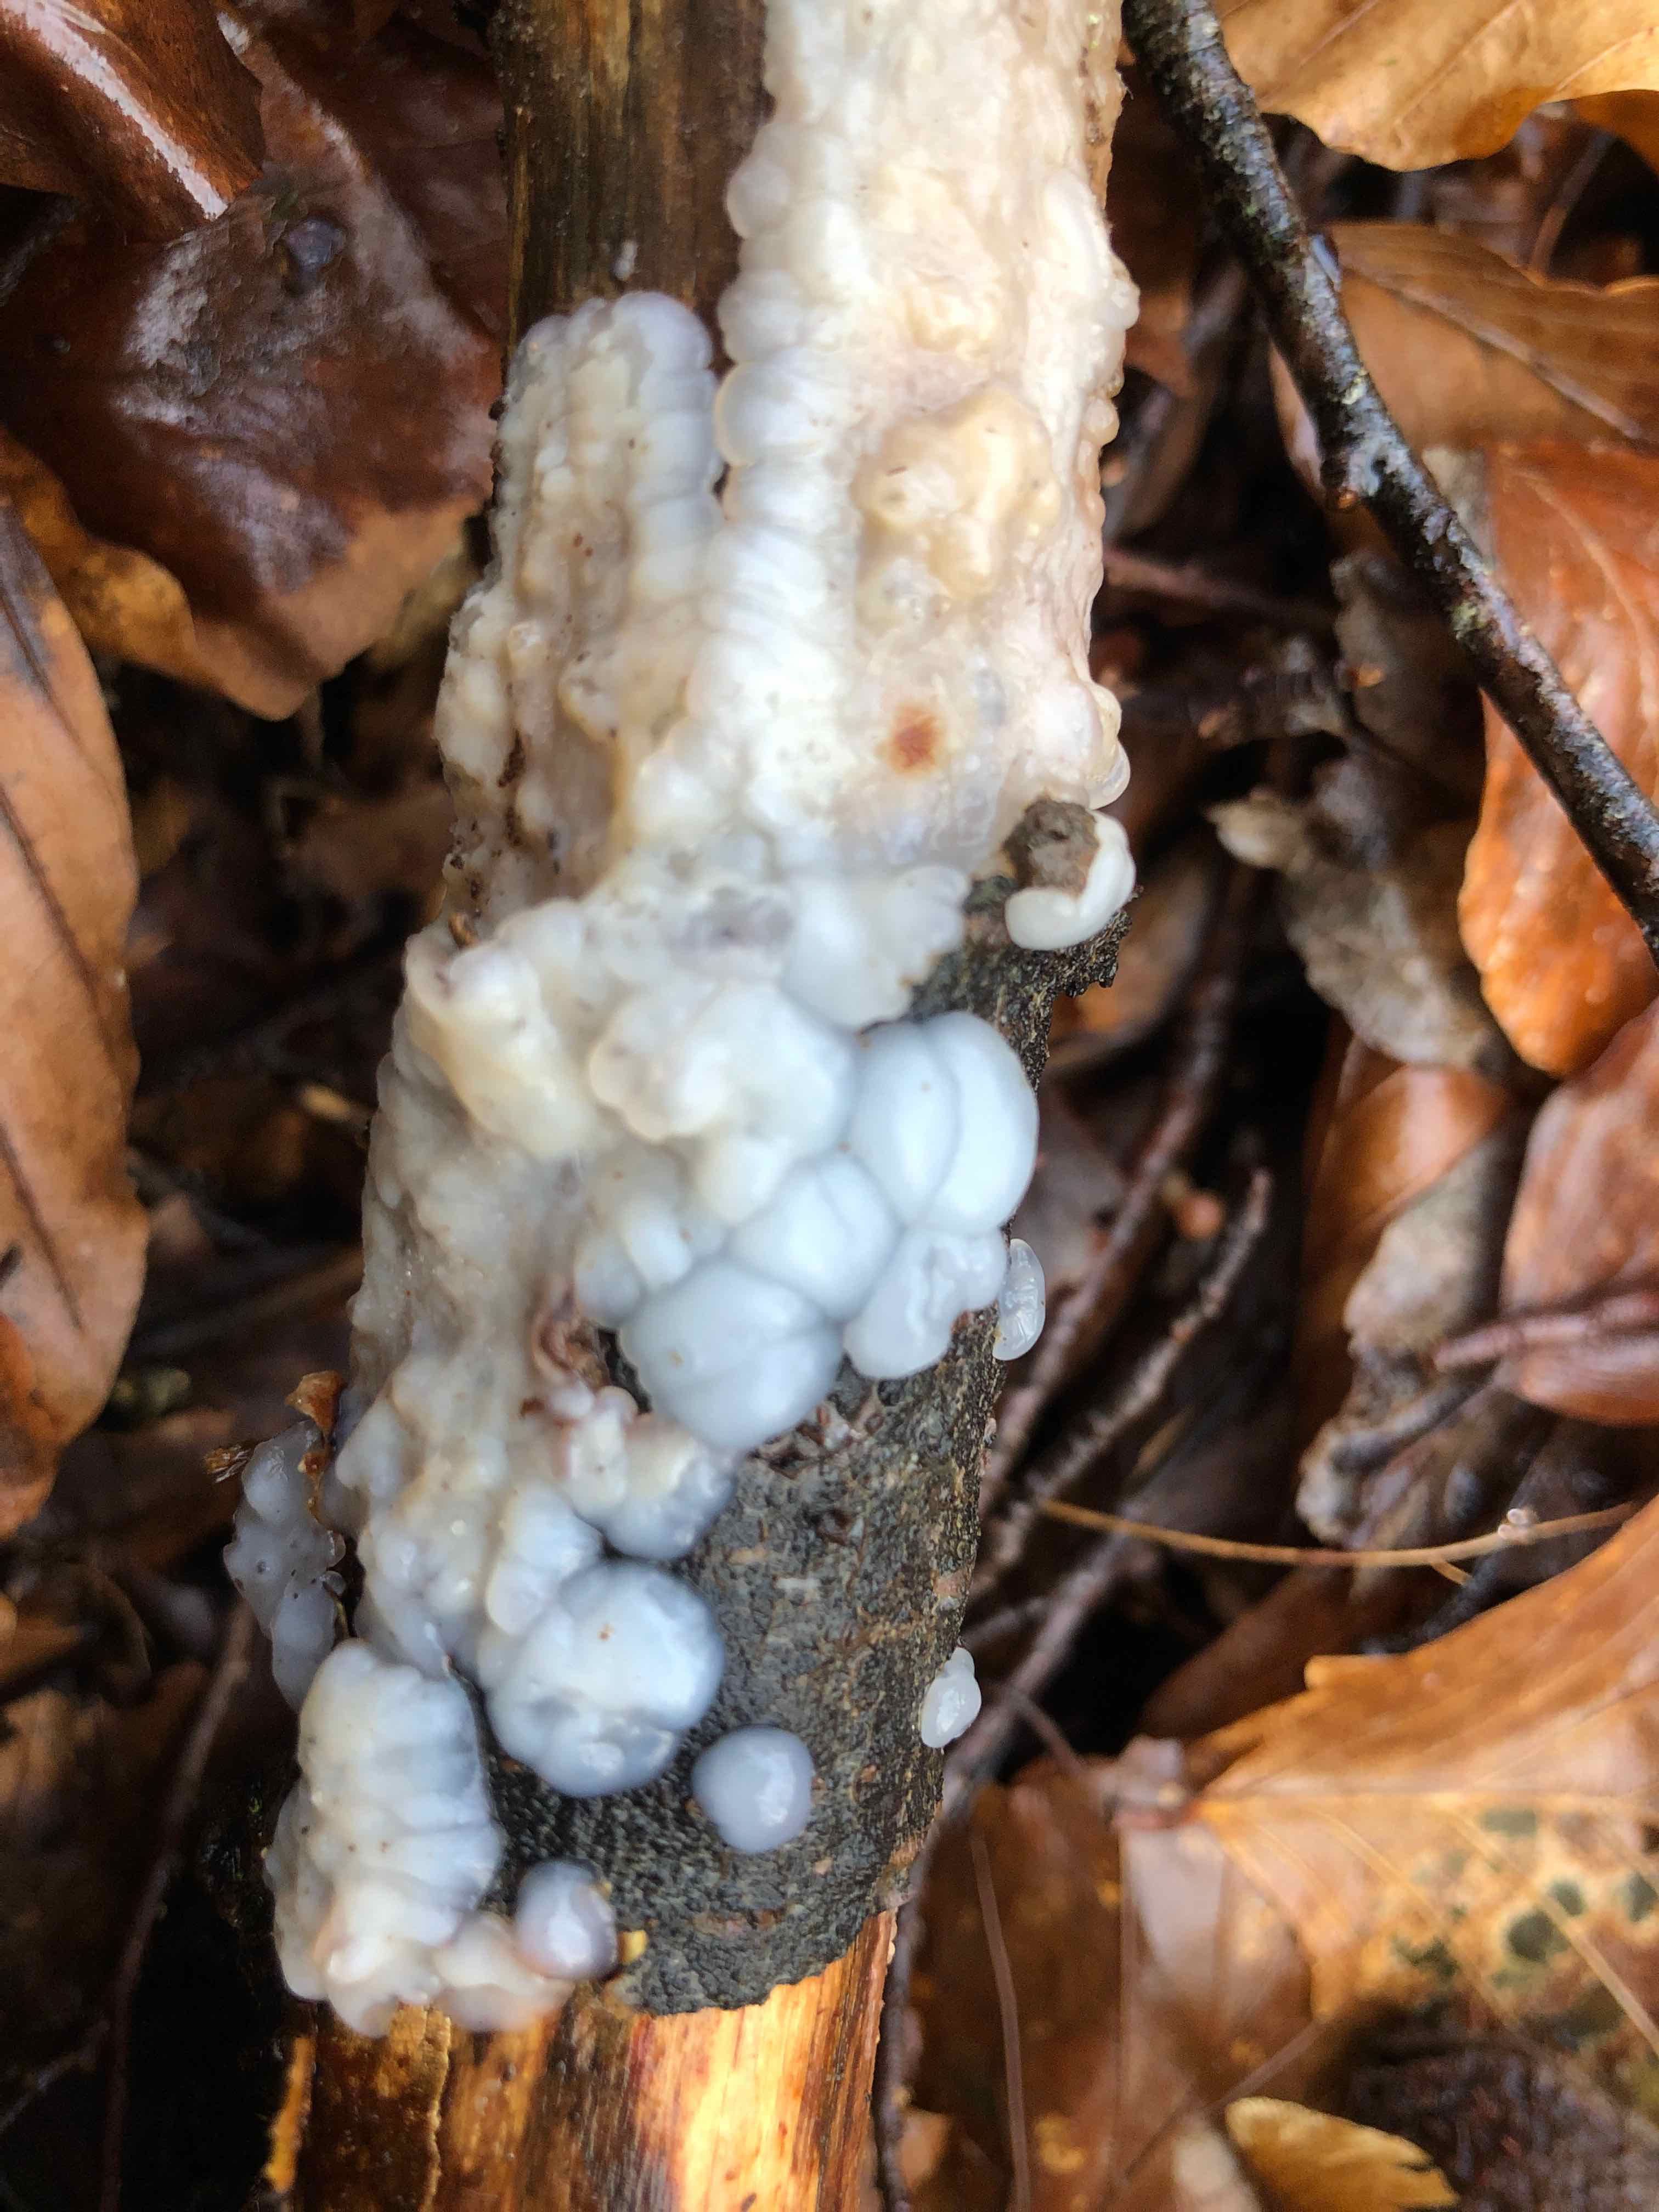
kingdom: Fungi
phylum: Basidiomycota
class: Agaricomycetes
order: Auriculariales
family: Auriculariaceae
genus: Exidia
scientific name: Exidia thuretiana
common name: hvidlig bævretop
